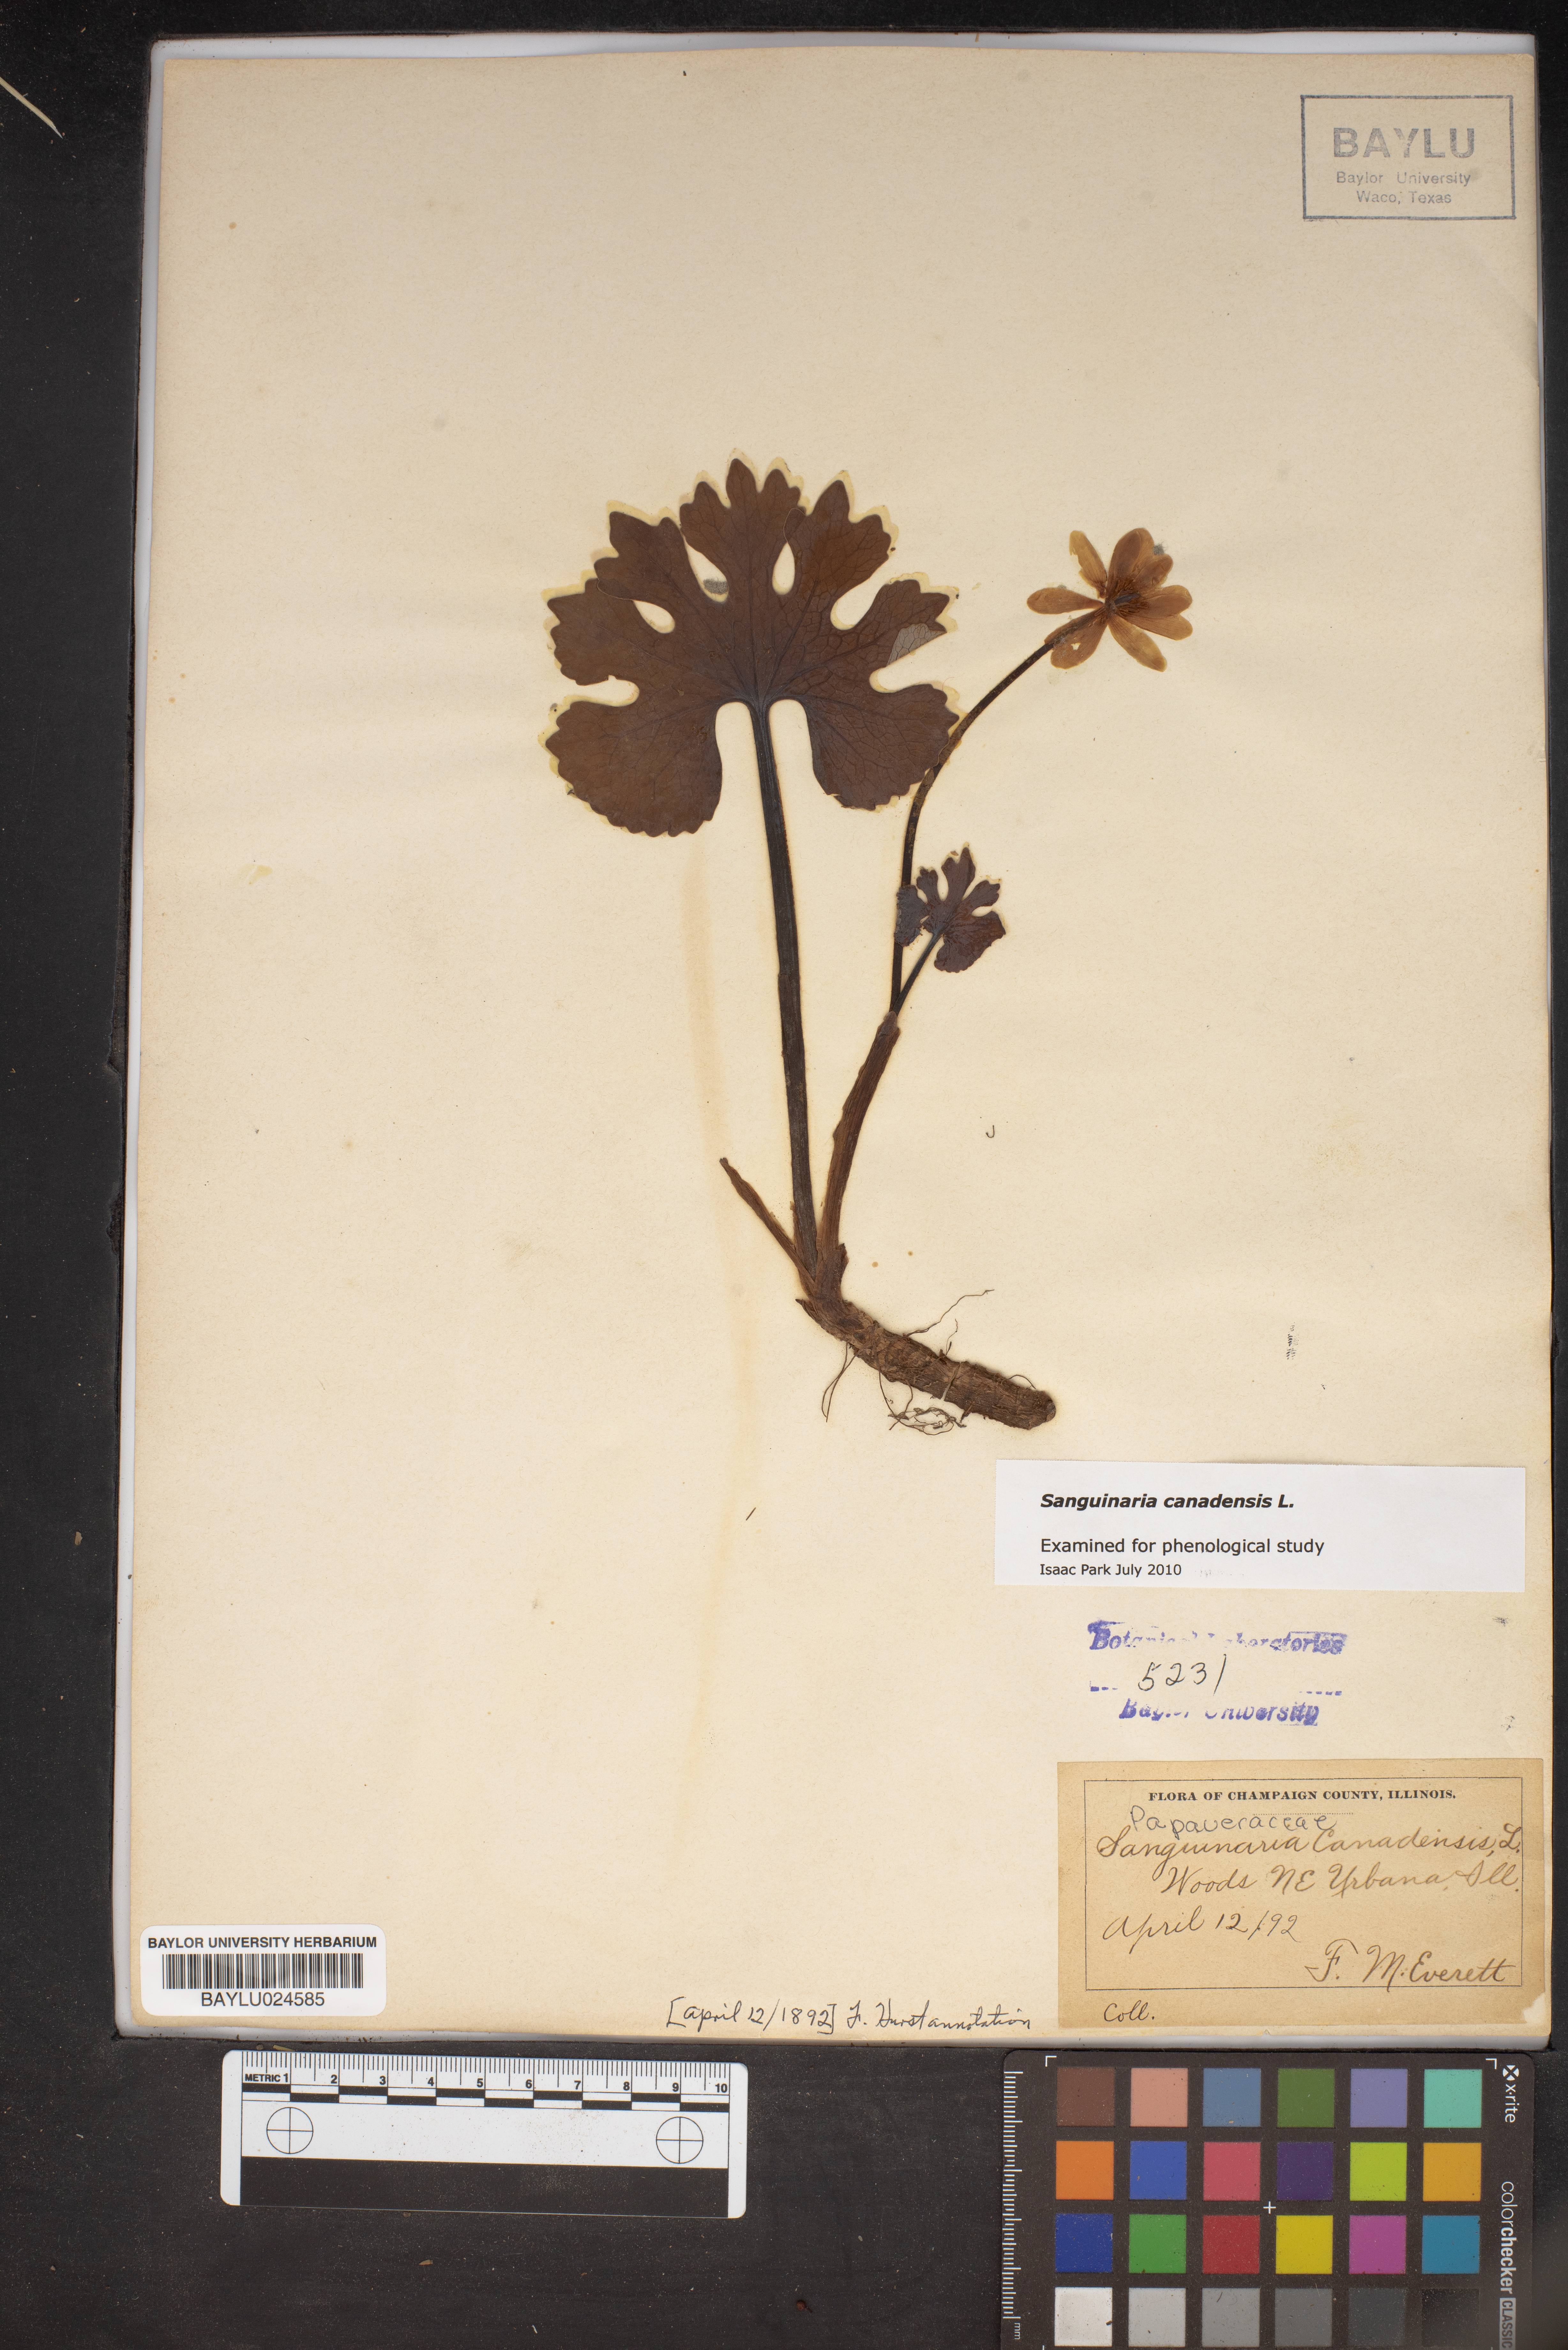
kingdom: Plantae
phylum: Tracheophyta
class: Magnoliopsida
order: Ranunculales
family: Papaveraceae
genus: Sanguinaria
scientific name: Sanguinaria canadensis
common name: Bloodroot
